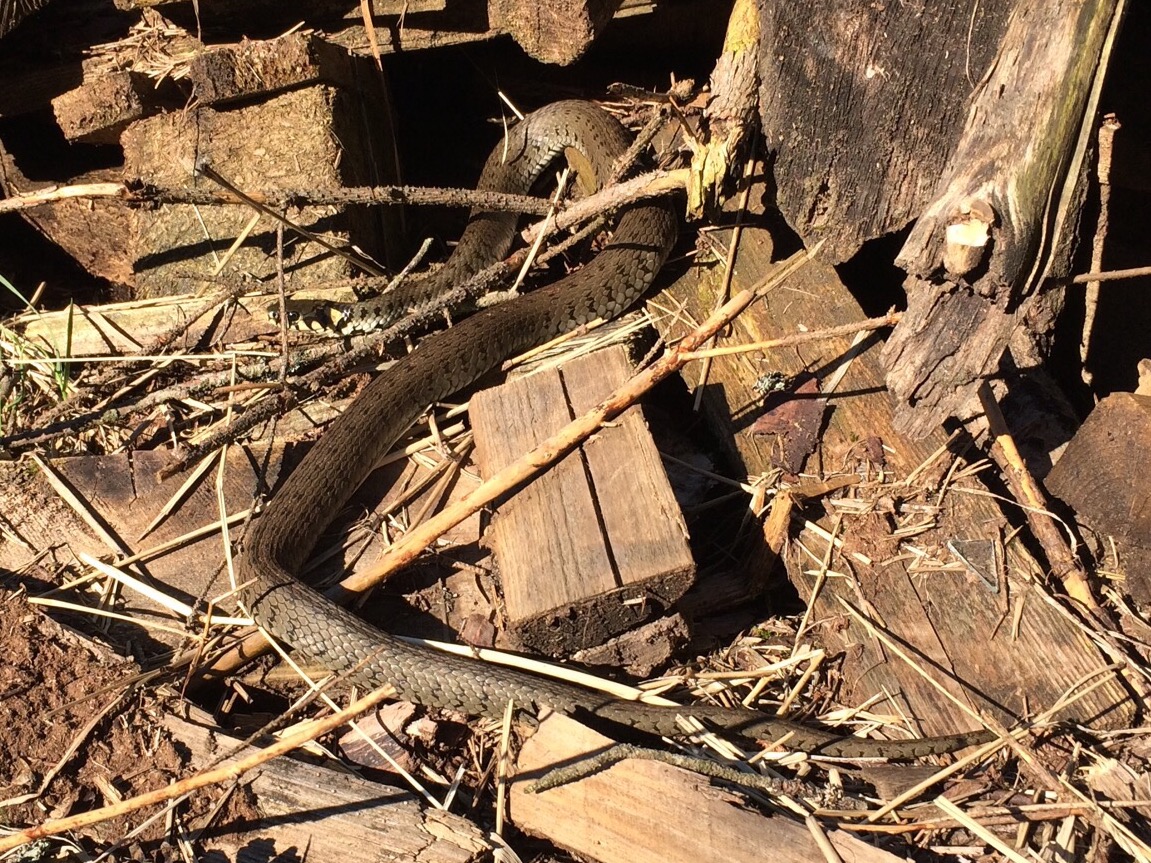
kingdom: Animalia
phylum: Chordata
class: Squamata
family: Colubridae
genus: Natrix
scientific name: Natrix natrix
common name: Grass snake
